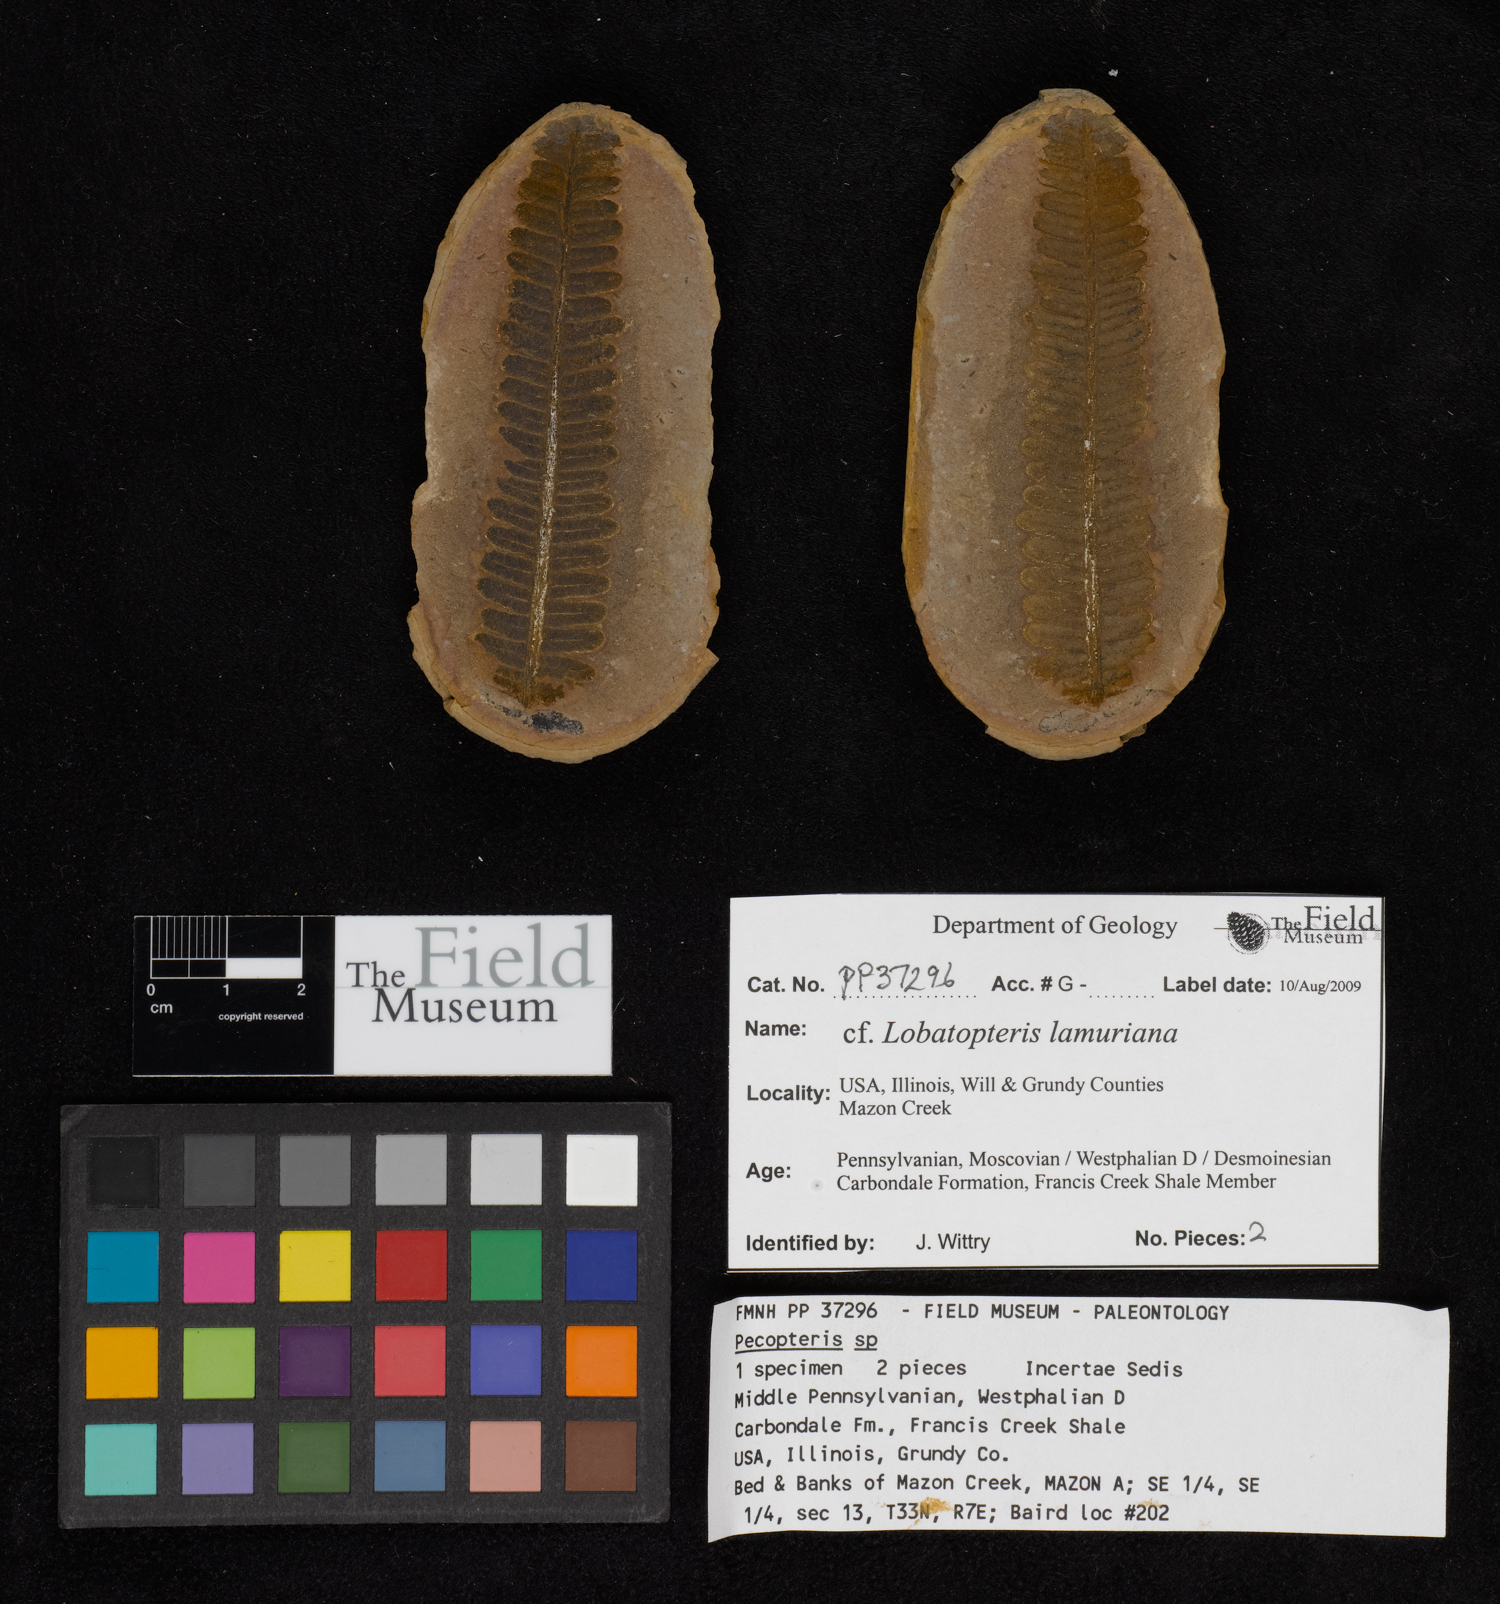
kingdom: Plantae
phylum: Tracheophyta
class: Polypodiopsida
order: Marattiales
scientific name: Marattiales
